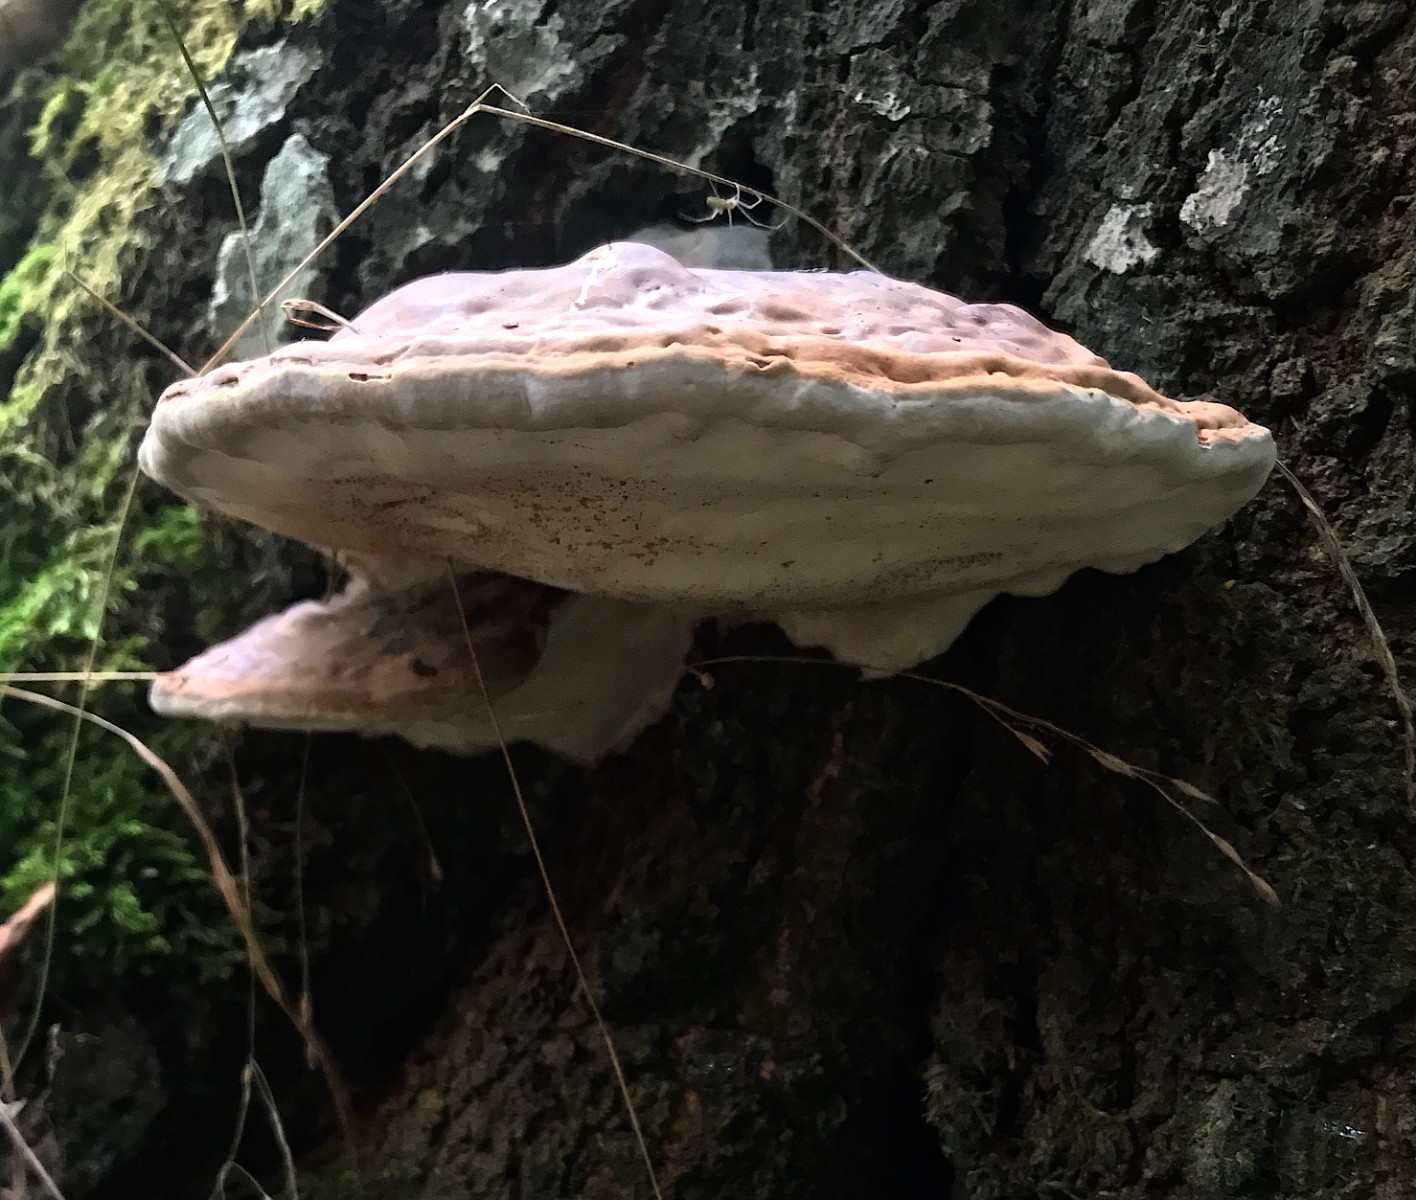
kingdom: Fungi
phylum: Basidiomycota
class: Agaricomycetes
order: Polyporales
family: Fomitopsidaceae
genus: Fomitopsis
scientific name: Fomitopsis pinicola
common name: randbæltet hovporesvamp
